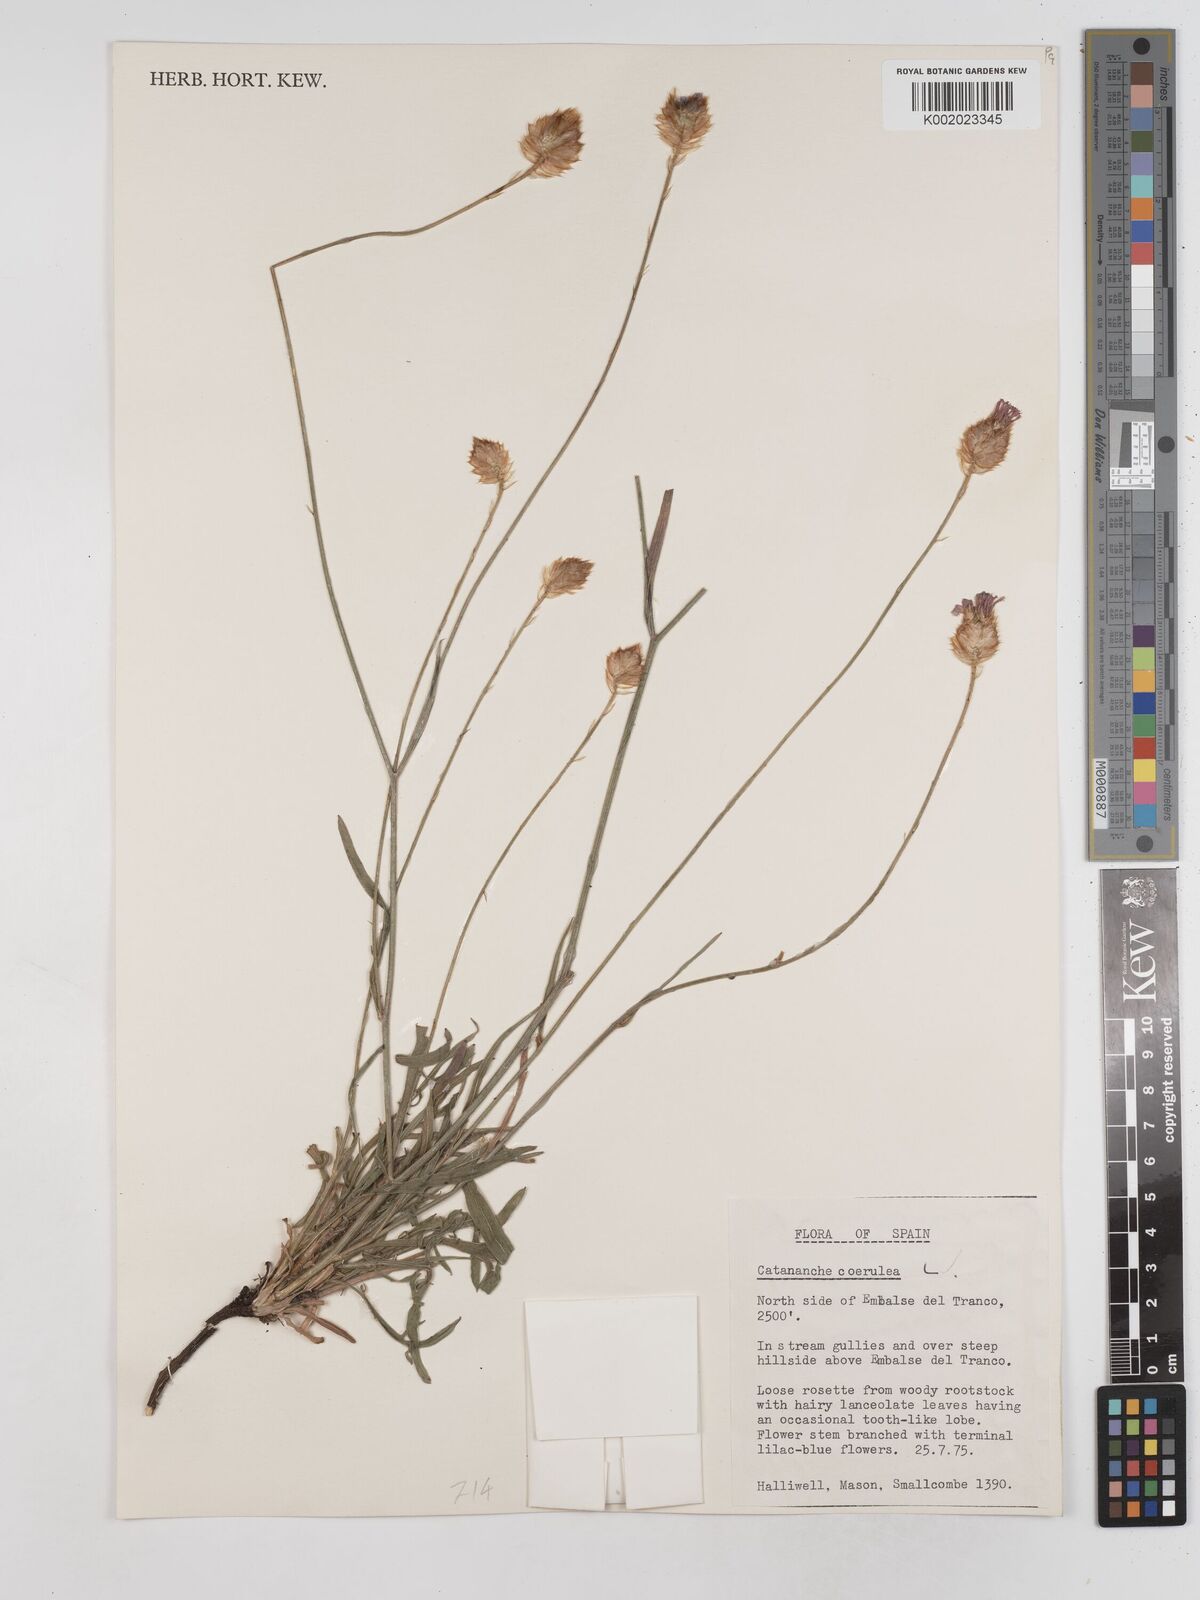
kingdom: Plantae
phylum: Tracheophyta
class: Magnoliopsida
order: Asterales
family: Asteraceae
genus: Catananche
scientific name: Catananche caerulea
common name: Blue cupidone
